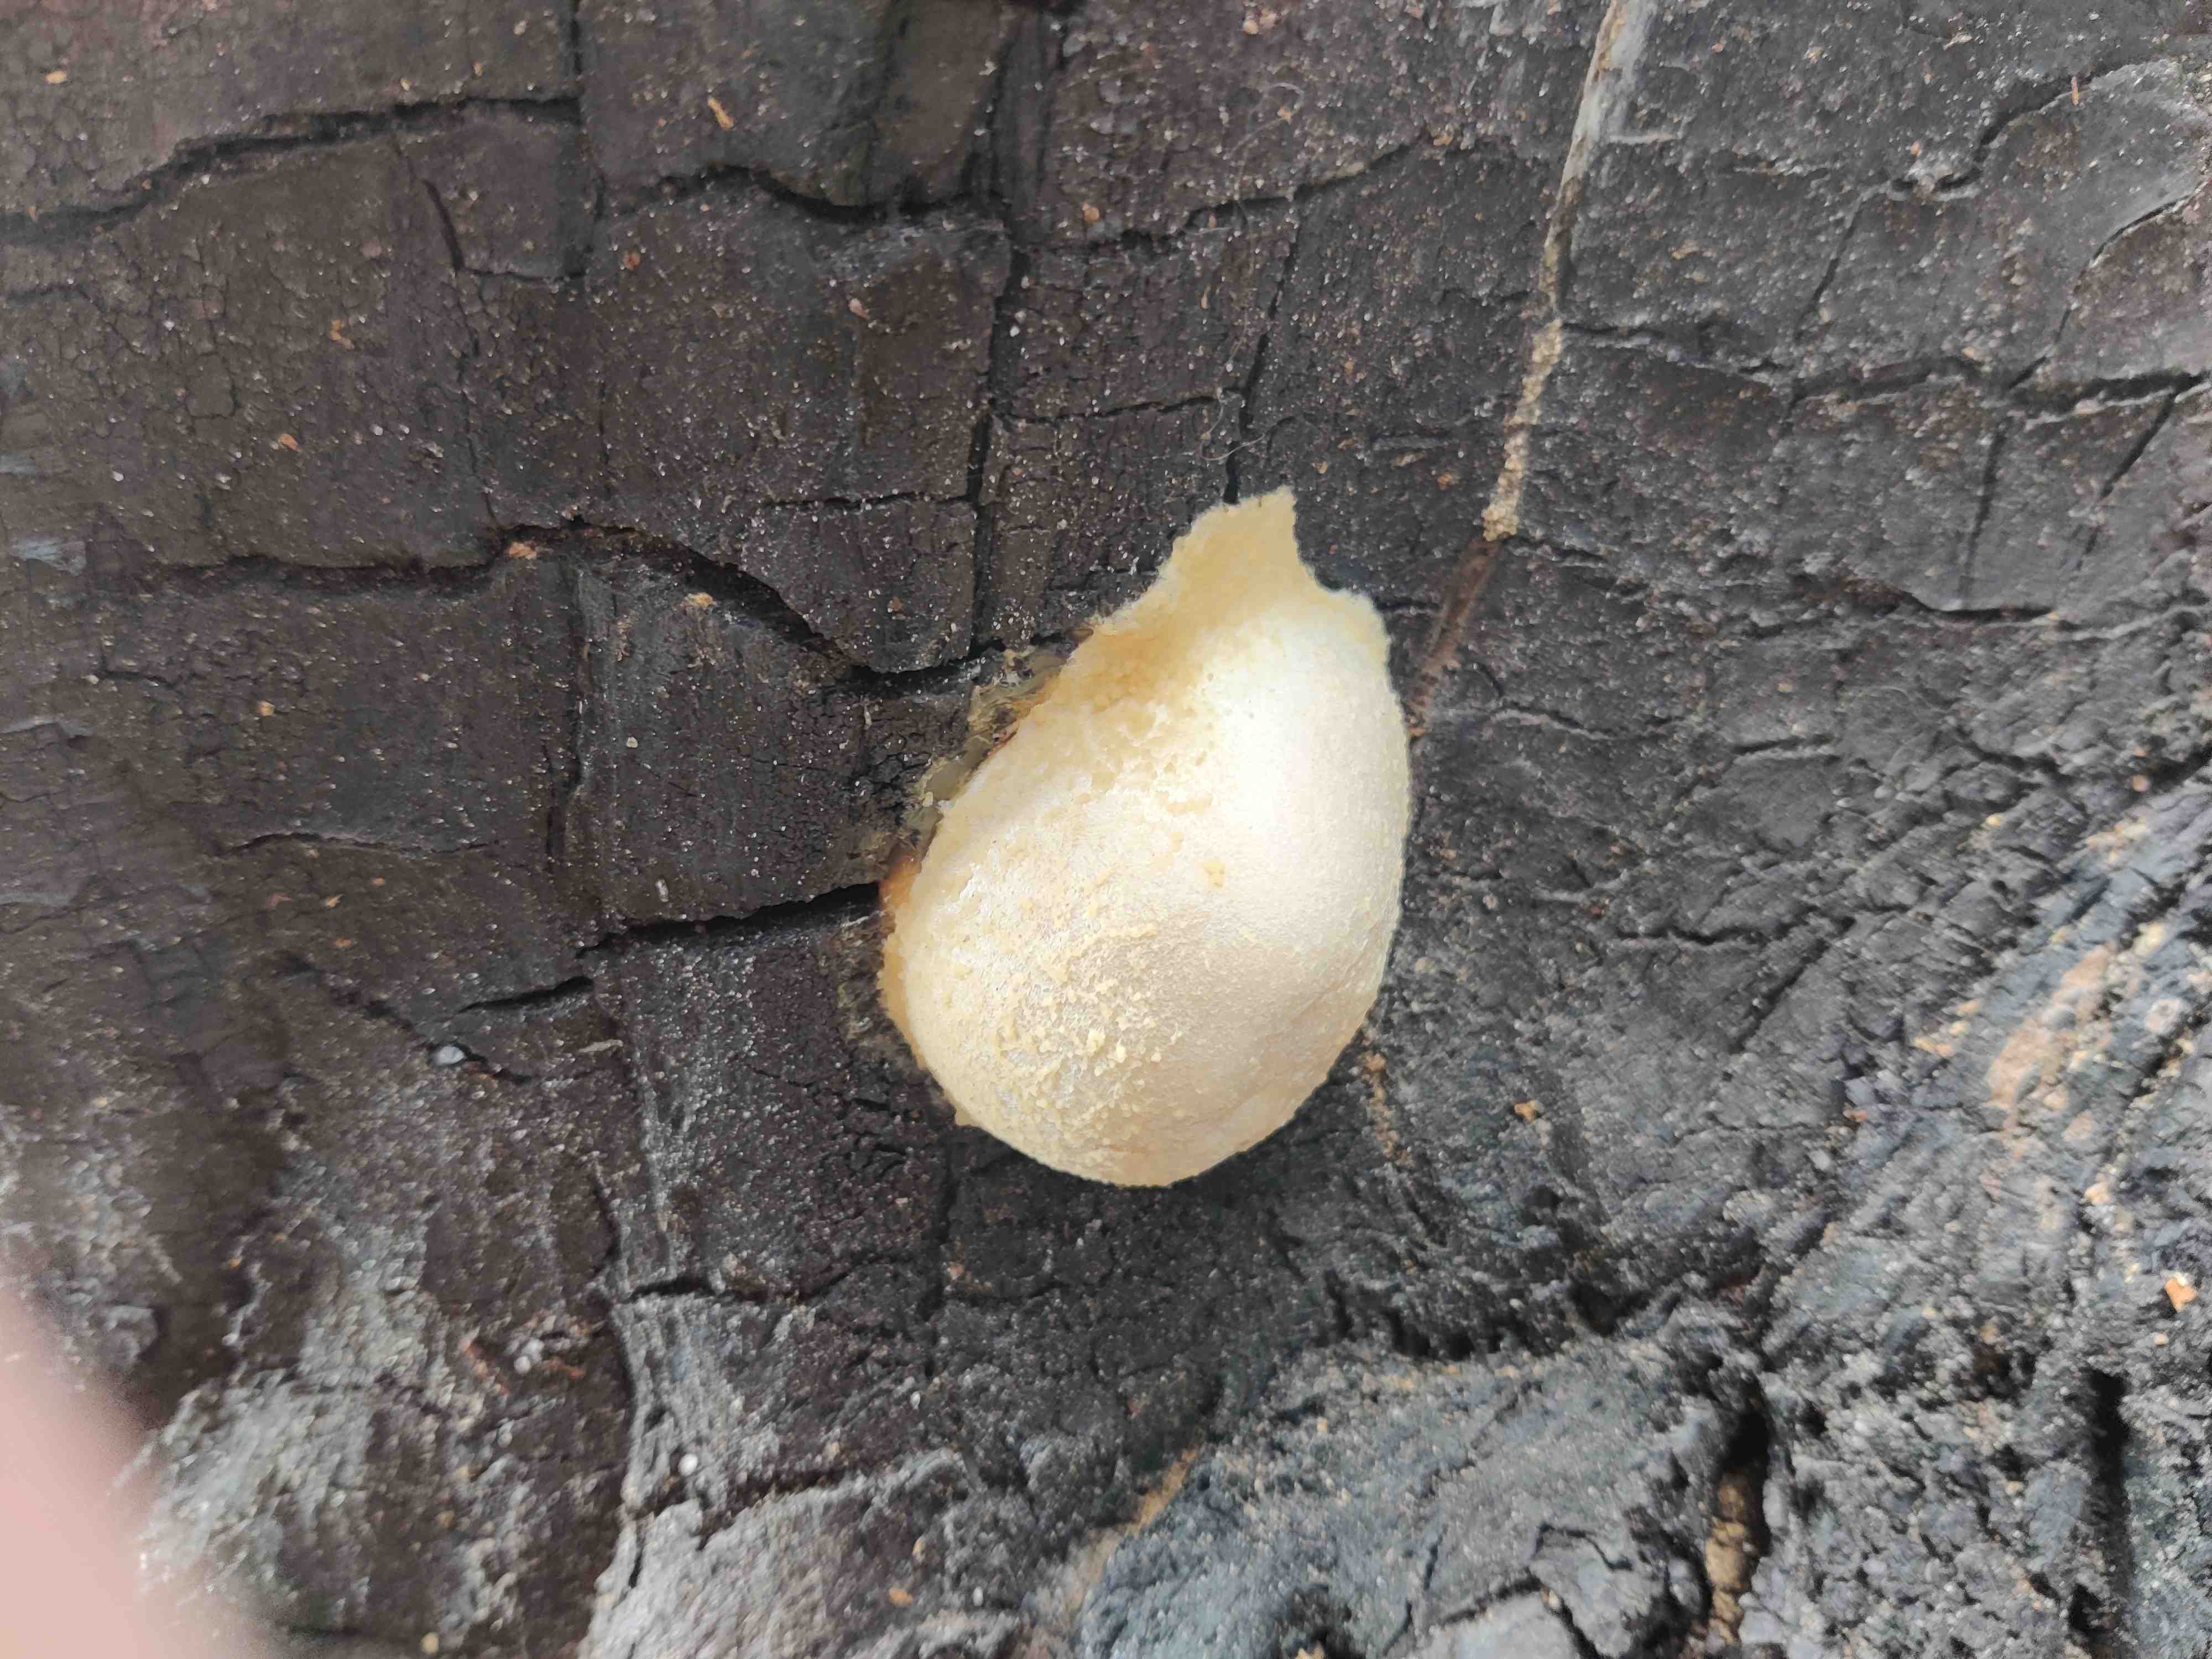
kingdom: Protozoa
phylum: Mycetozoa
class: Myxomycetes
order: Cribrariales
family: Tubiferaceae
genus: Reticularia
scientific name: Reticularia lycoperdon
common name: skinnende støvpude
